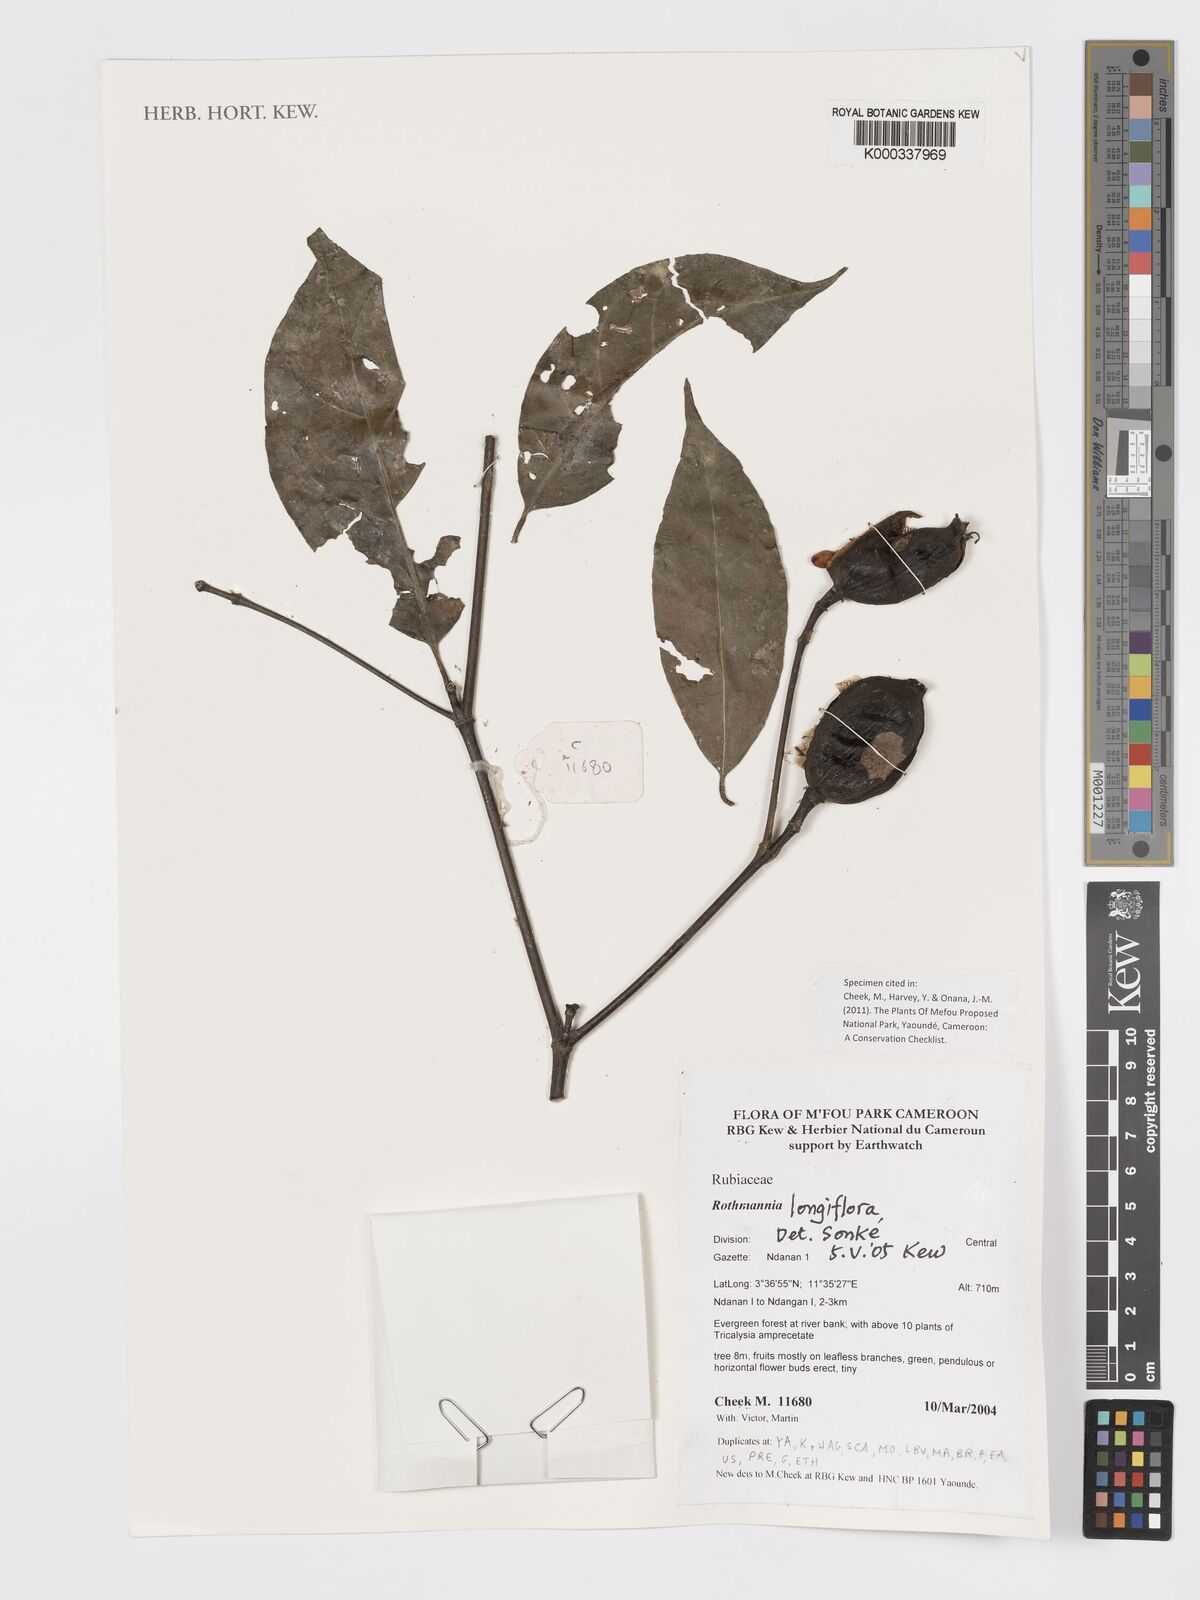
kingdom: Plantae
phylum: Tracheophyta
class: Magnoliopsida
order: Gentianales
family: Rubiaceae
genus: Rothmannia
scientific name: Rothmannia longiflora
